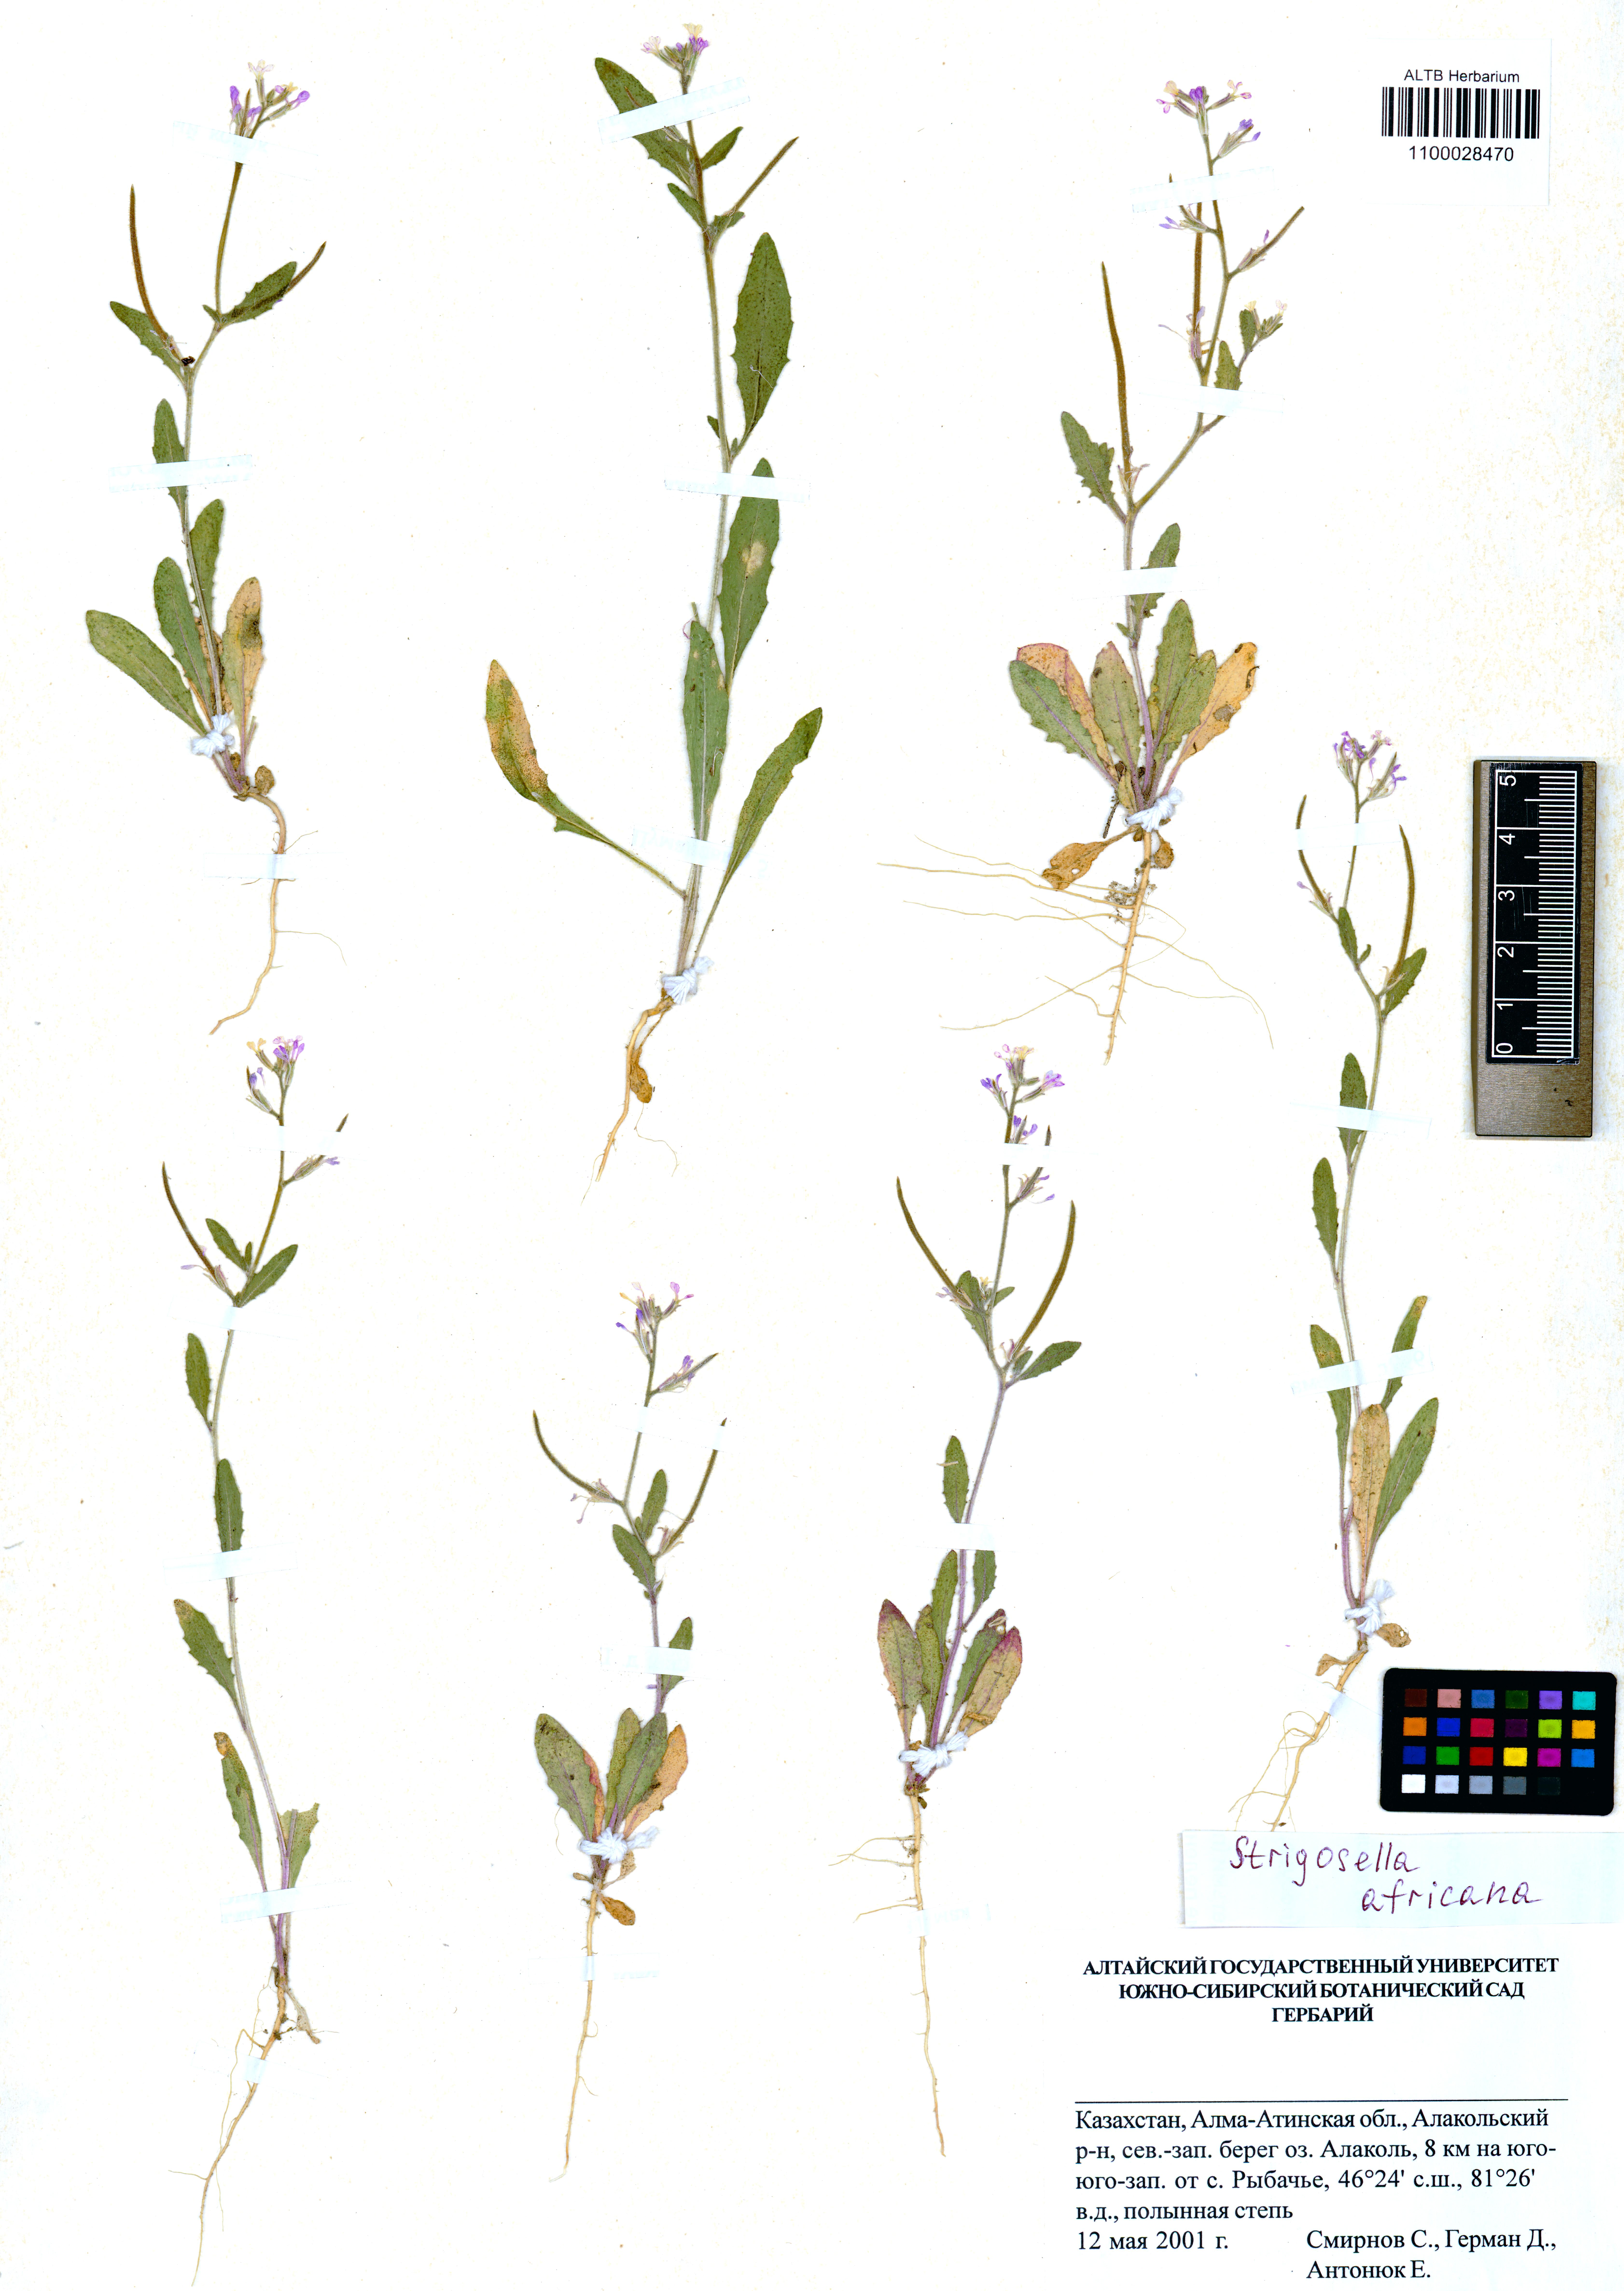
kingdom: Plantae
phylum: Tracheophyta
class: Magnoliopsida
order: Brassicales
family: Brassicaceae
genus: Strigosella
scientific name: Strigosella africana
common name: African mustard
